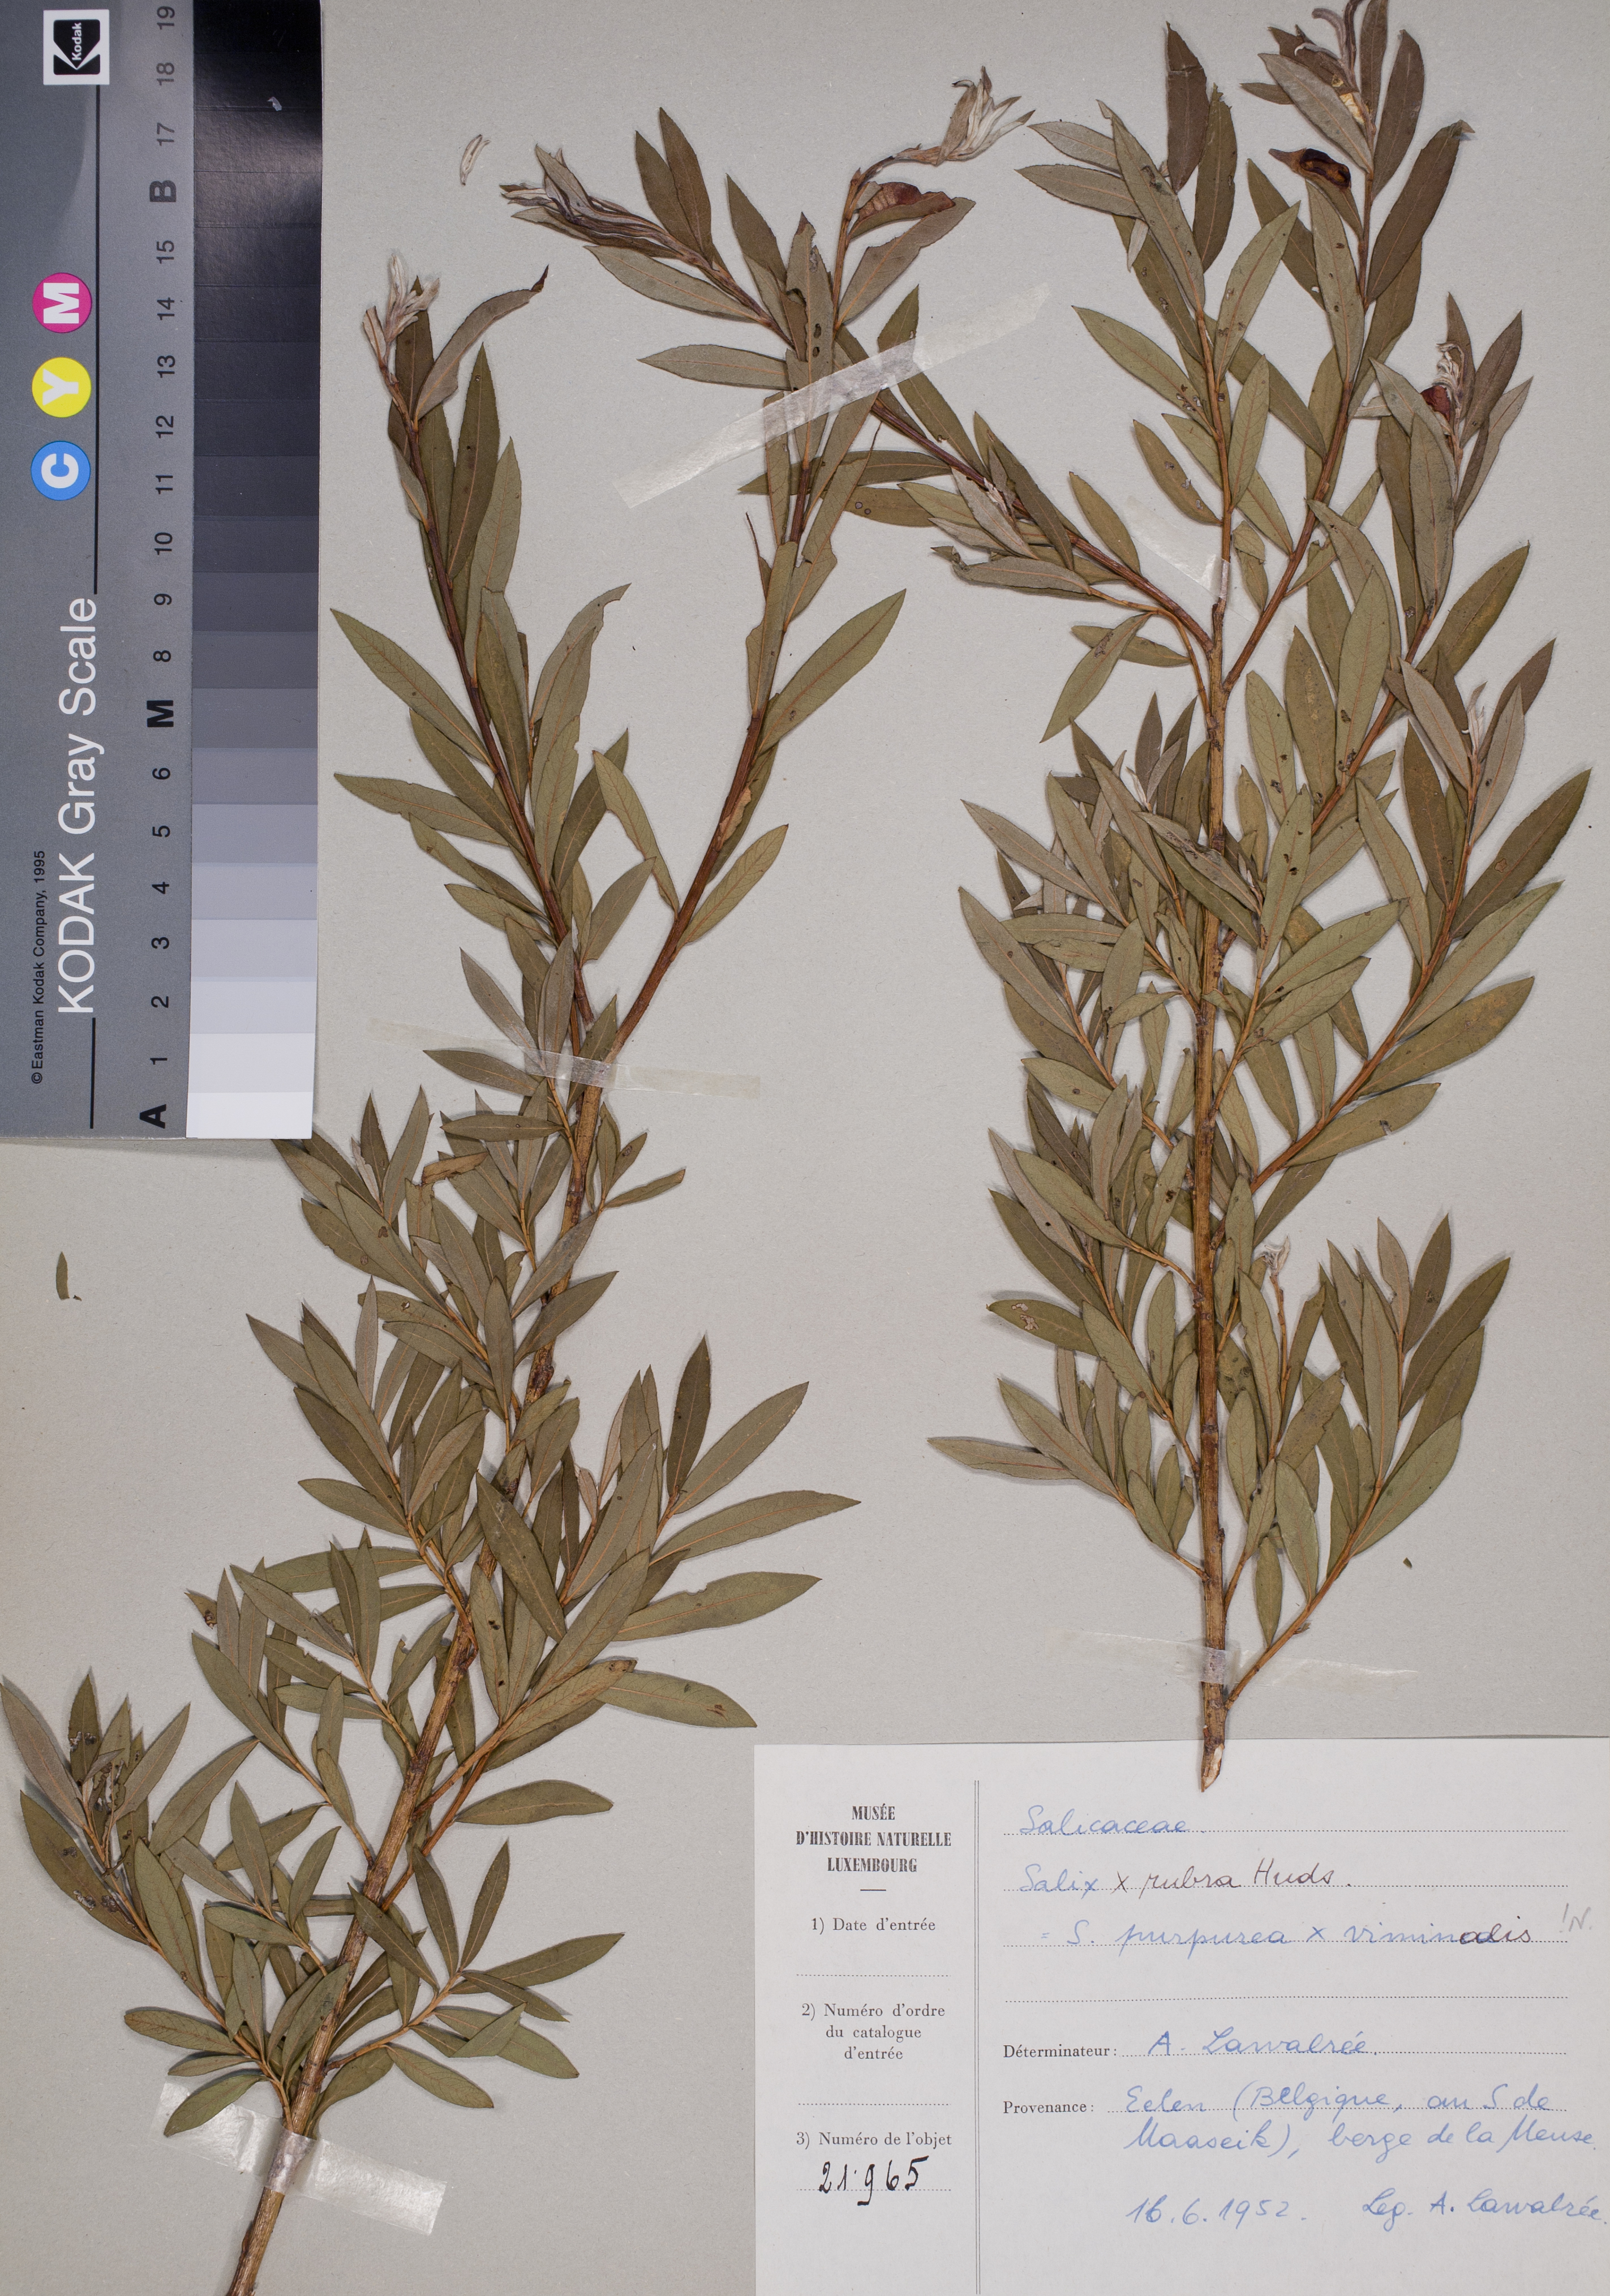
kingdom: Plantae
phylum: Tracheophyta
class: Magnoliopsida
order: Malpighiales
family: Salicaceae
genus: Salix
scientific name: Salix
